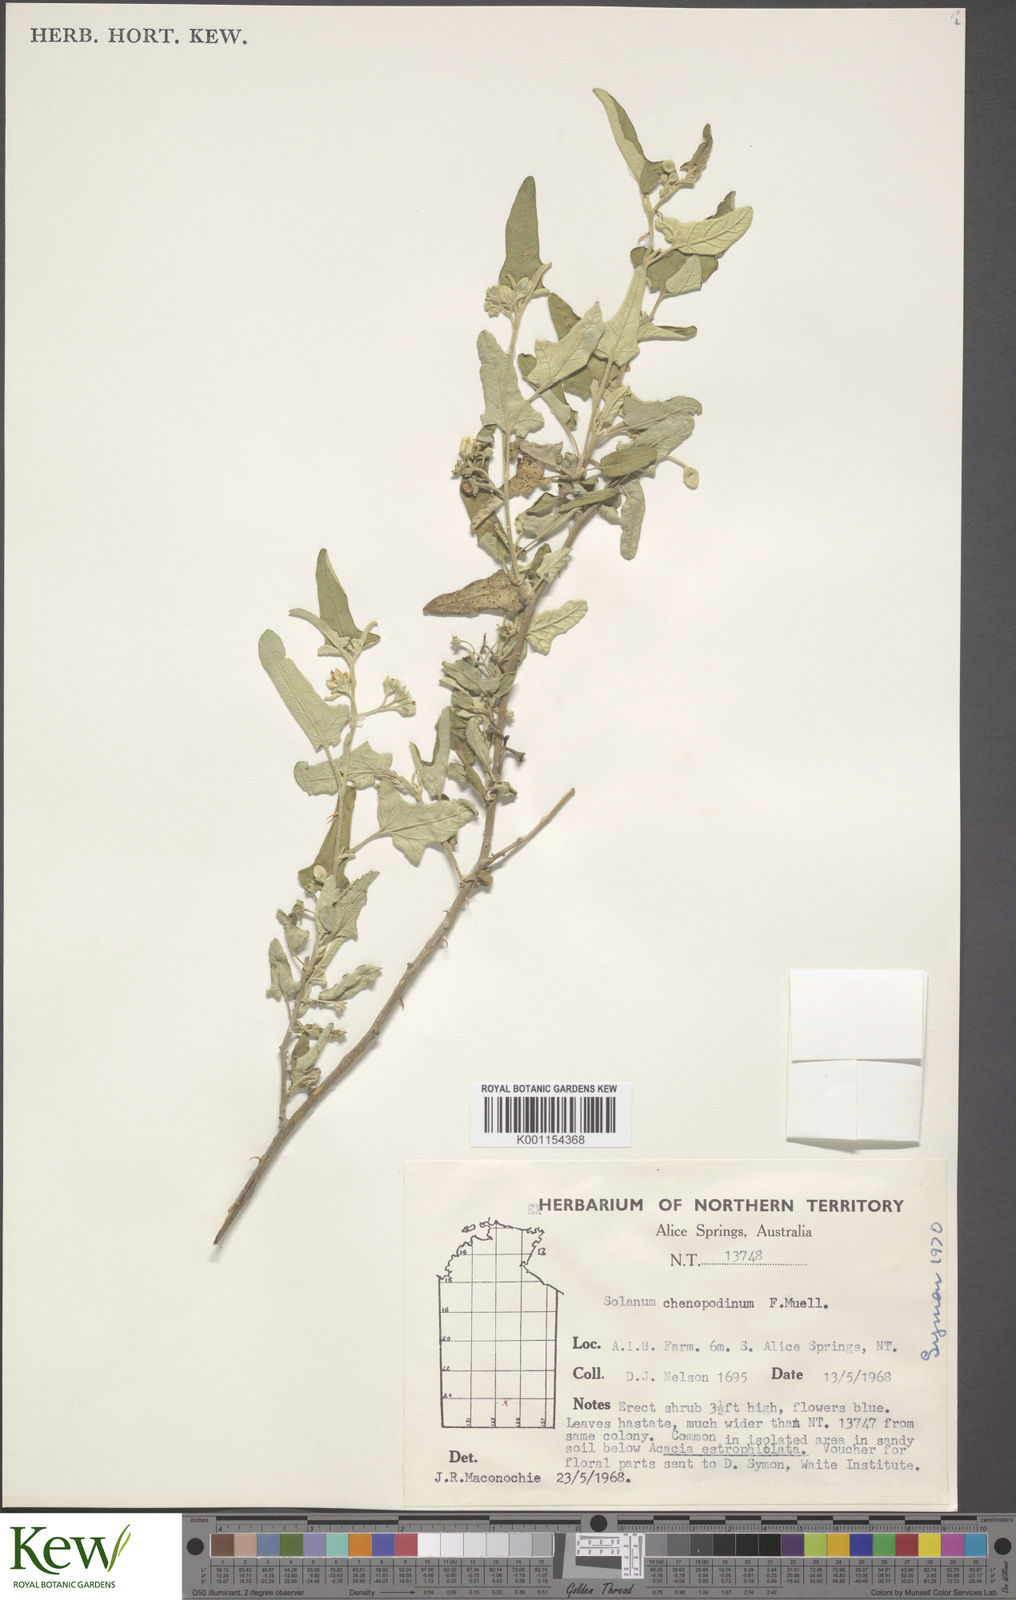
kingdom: Plantae
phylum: Tracheophyta
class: Magnoliopsida
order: Solanales
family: Solanaceae
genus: Solanum
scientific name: Solanum chenopodinum
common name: Goosefoot potato-bush
